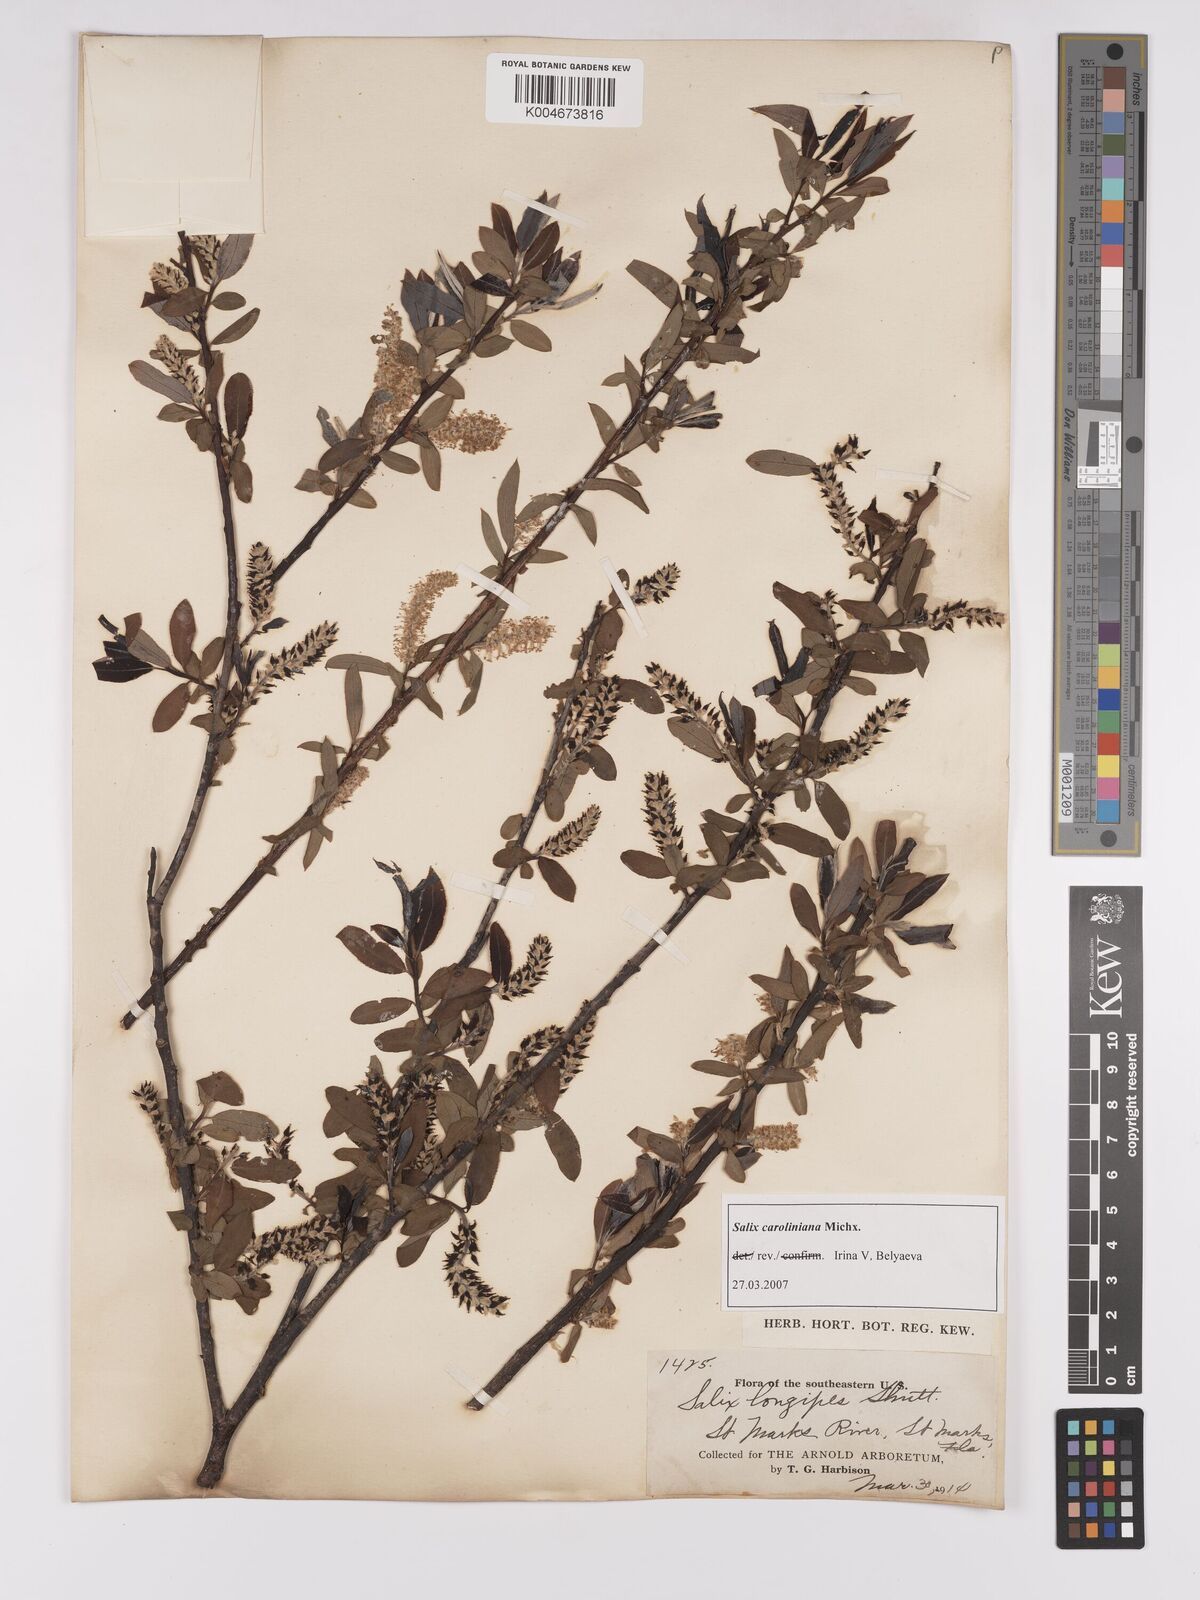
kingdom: Plantae
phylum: Tracheophyta
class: Magnoliopsida
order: Malpighiales
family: Salicaceae
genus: Salix
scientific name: Salix caroliniana
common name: Carolina willow
